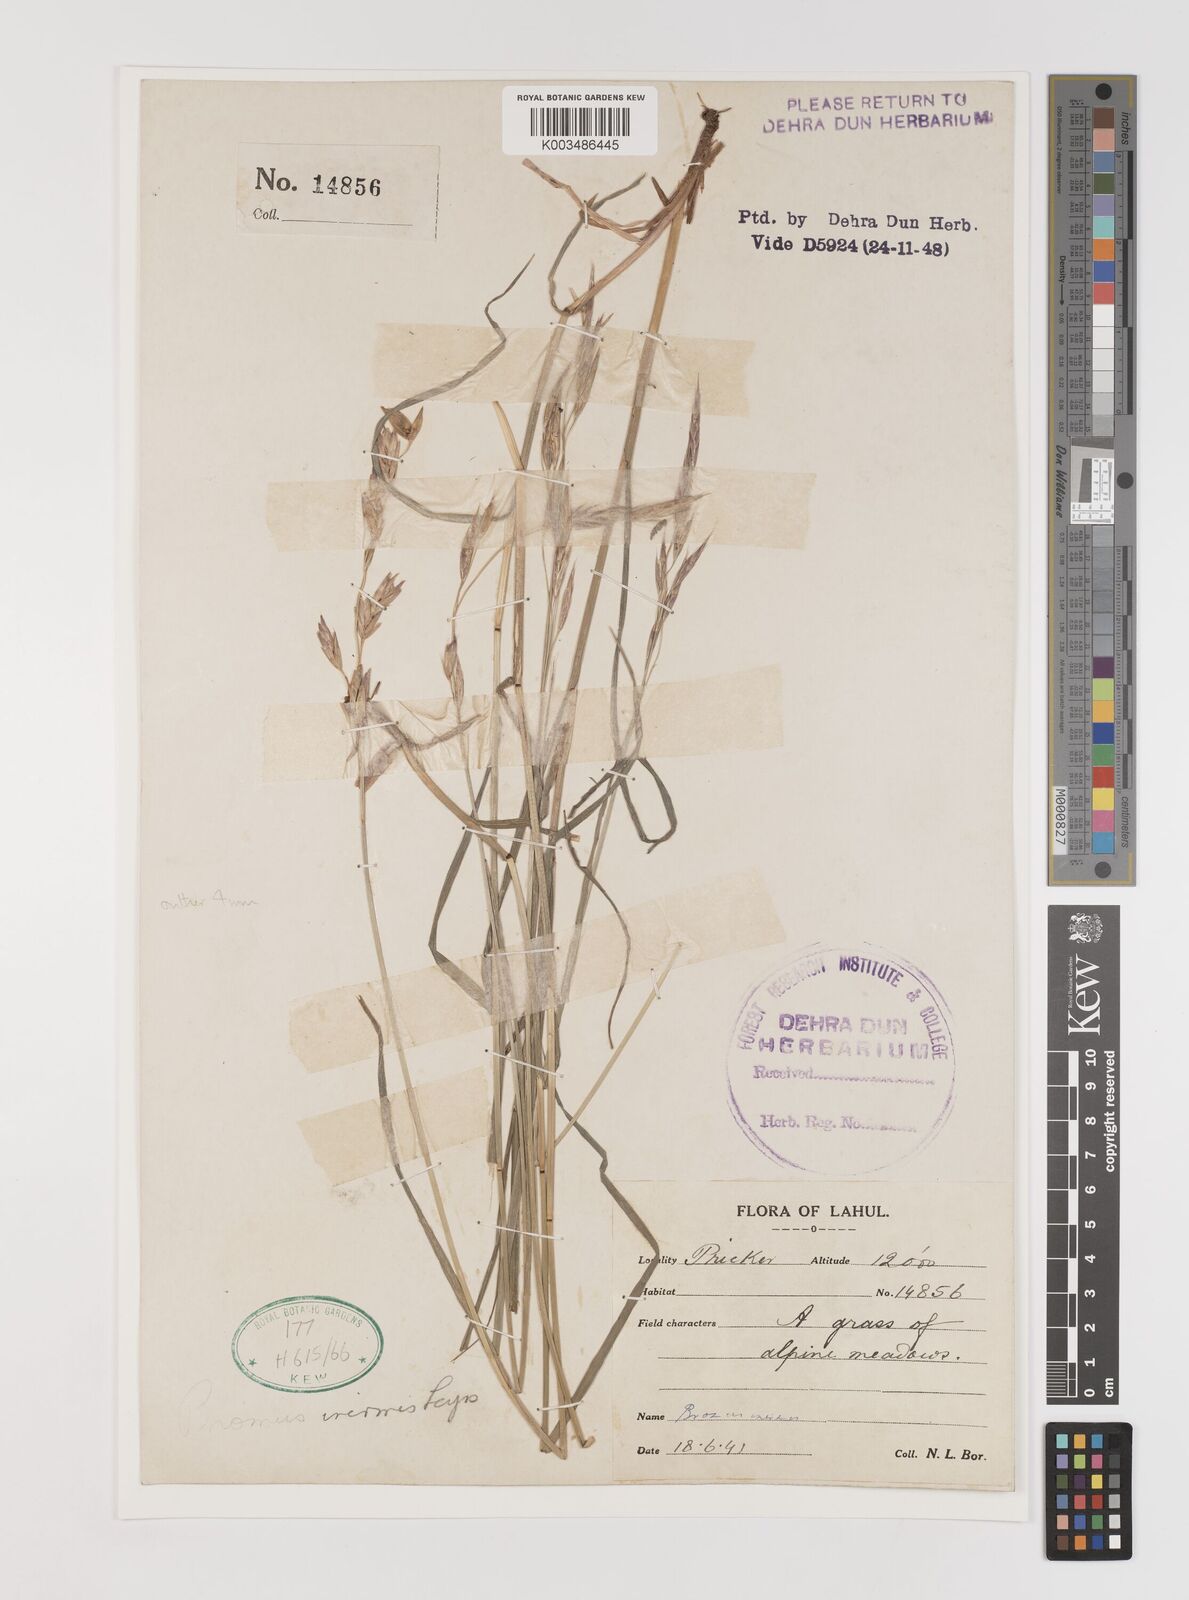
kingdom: Plantae
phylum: Tracheophyta
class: Liliopsida
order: Poales
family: Poaceae
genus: Bromus
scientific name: Bromus confinis
